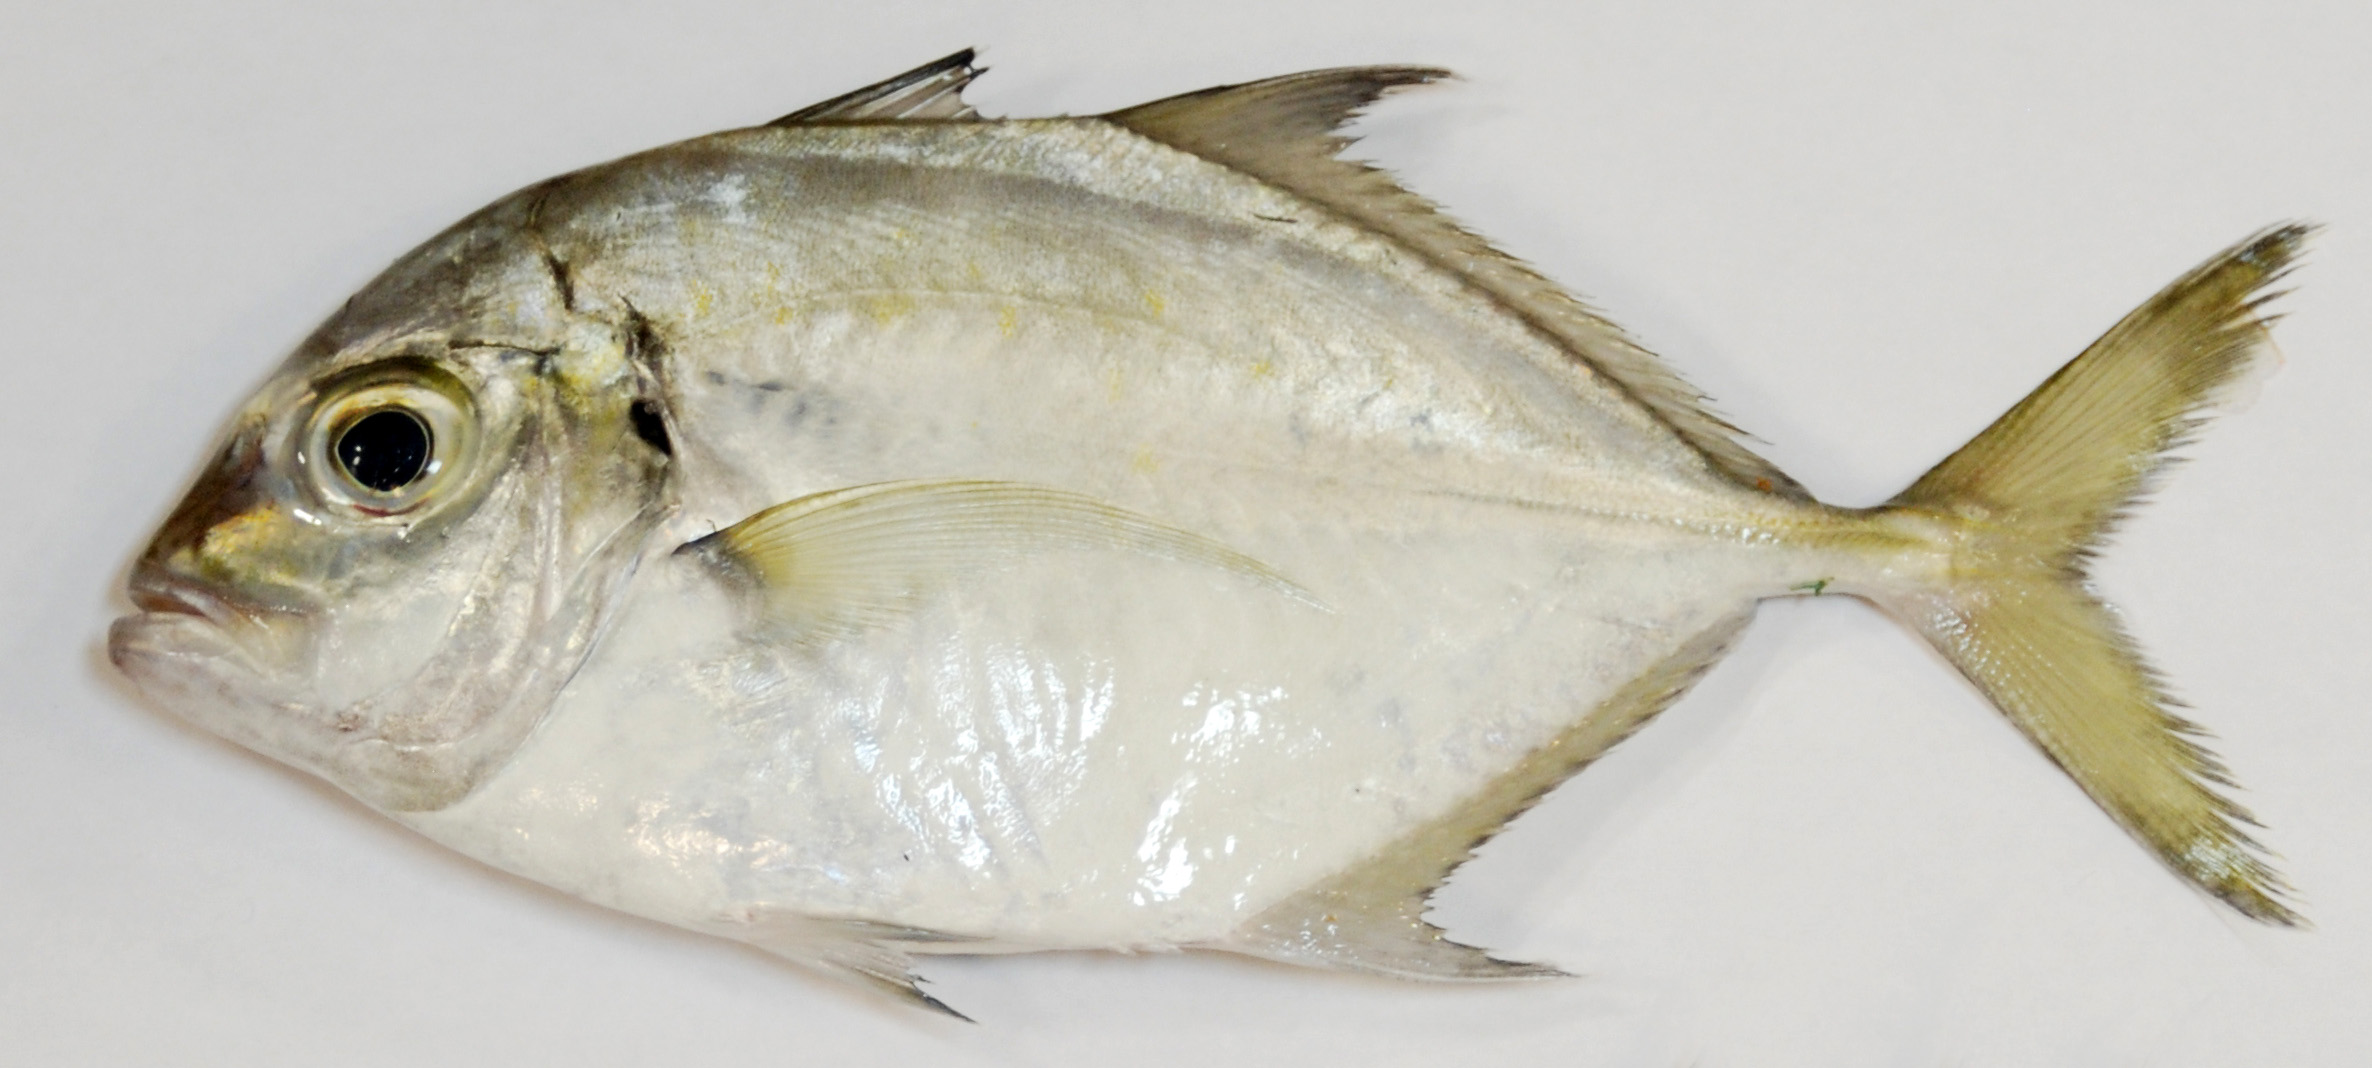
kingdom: Animalia
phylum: Chordata
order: Perciformes
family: Carangidae
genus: Carangoides
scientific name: Carangoides coeruleopinnatus
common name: Coastal trevally
